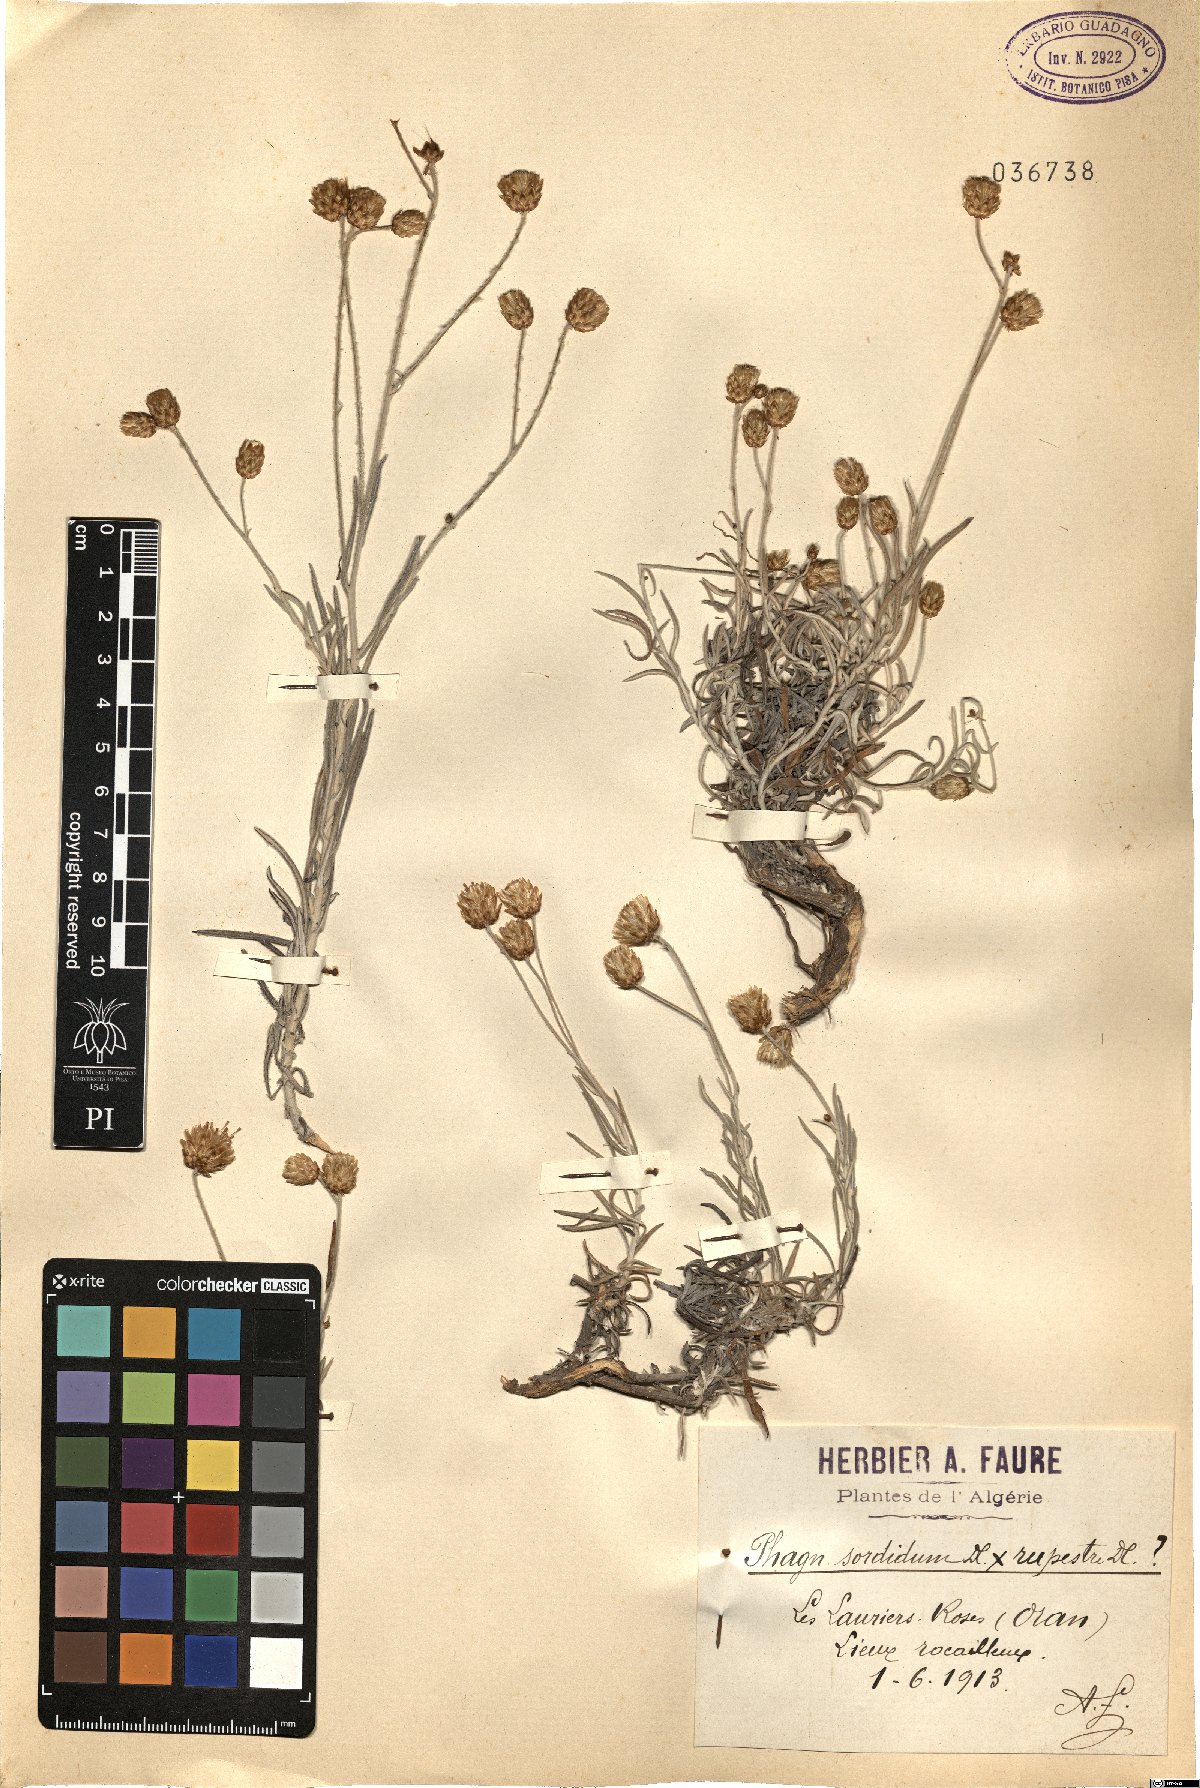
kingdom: Plantae
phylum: Tracheophyta
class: Magnoliopsida
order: Asterales
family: Asteraceae
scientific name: Asteraceae
